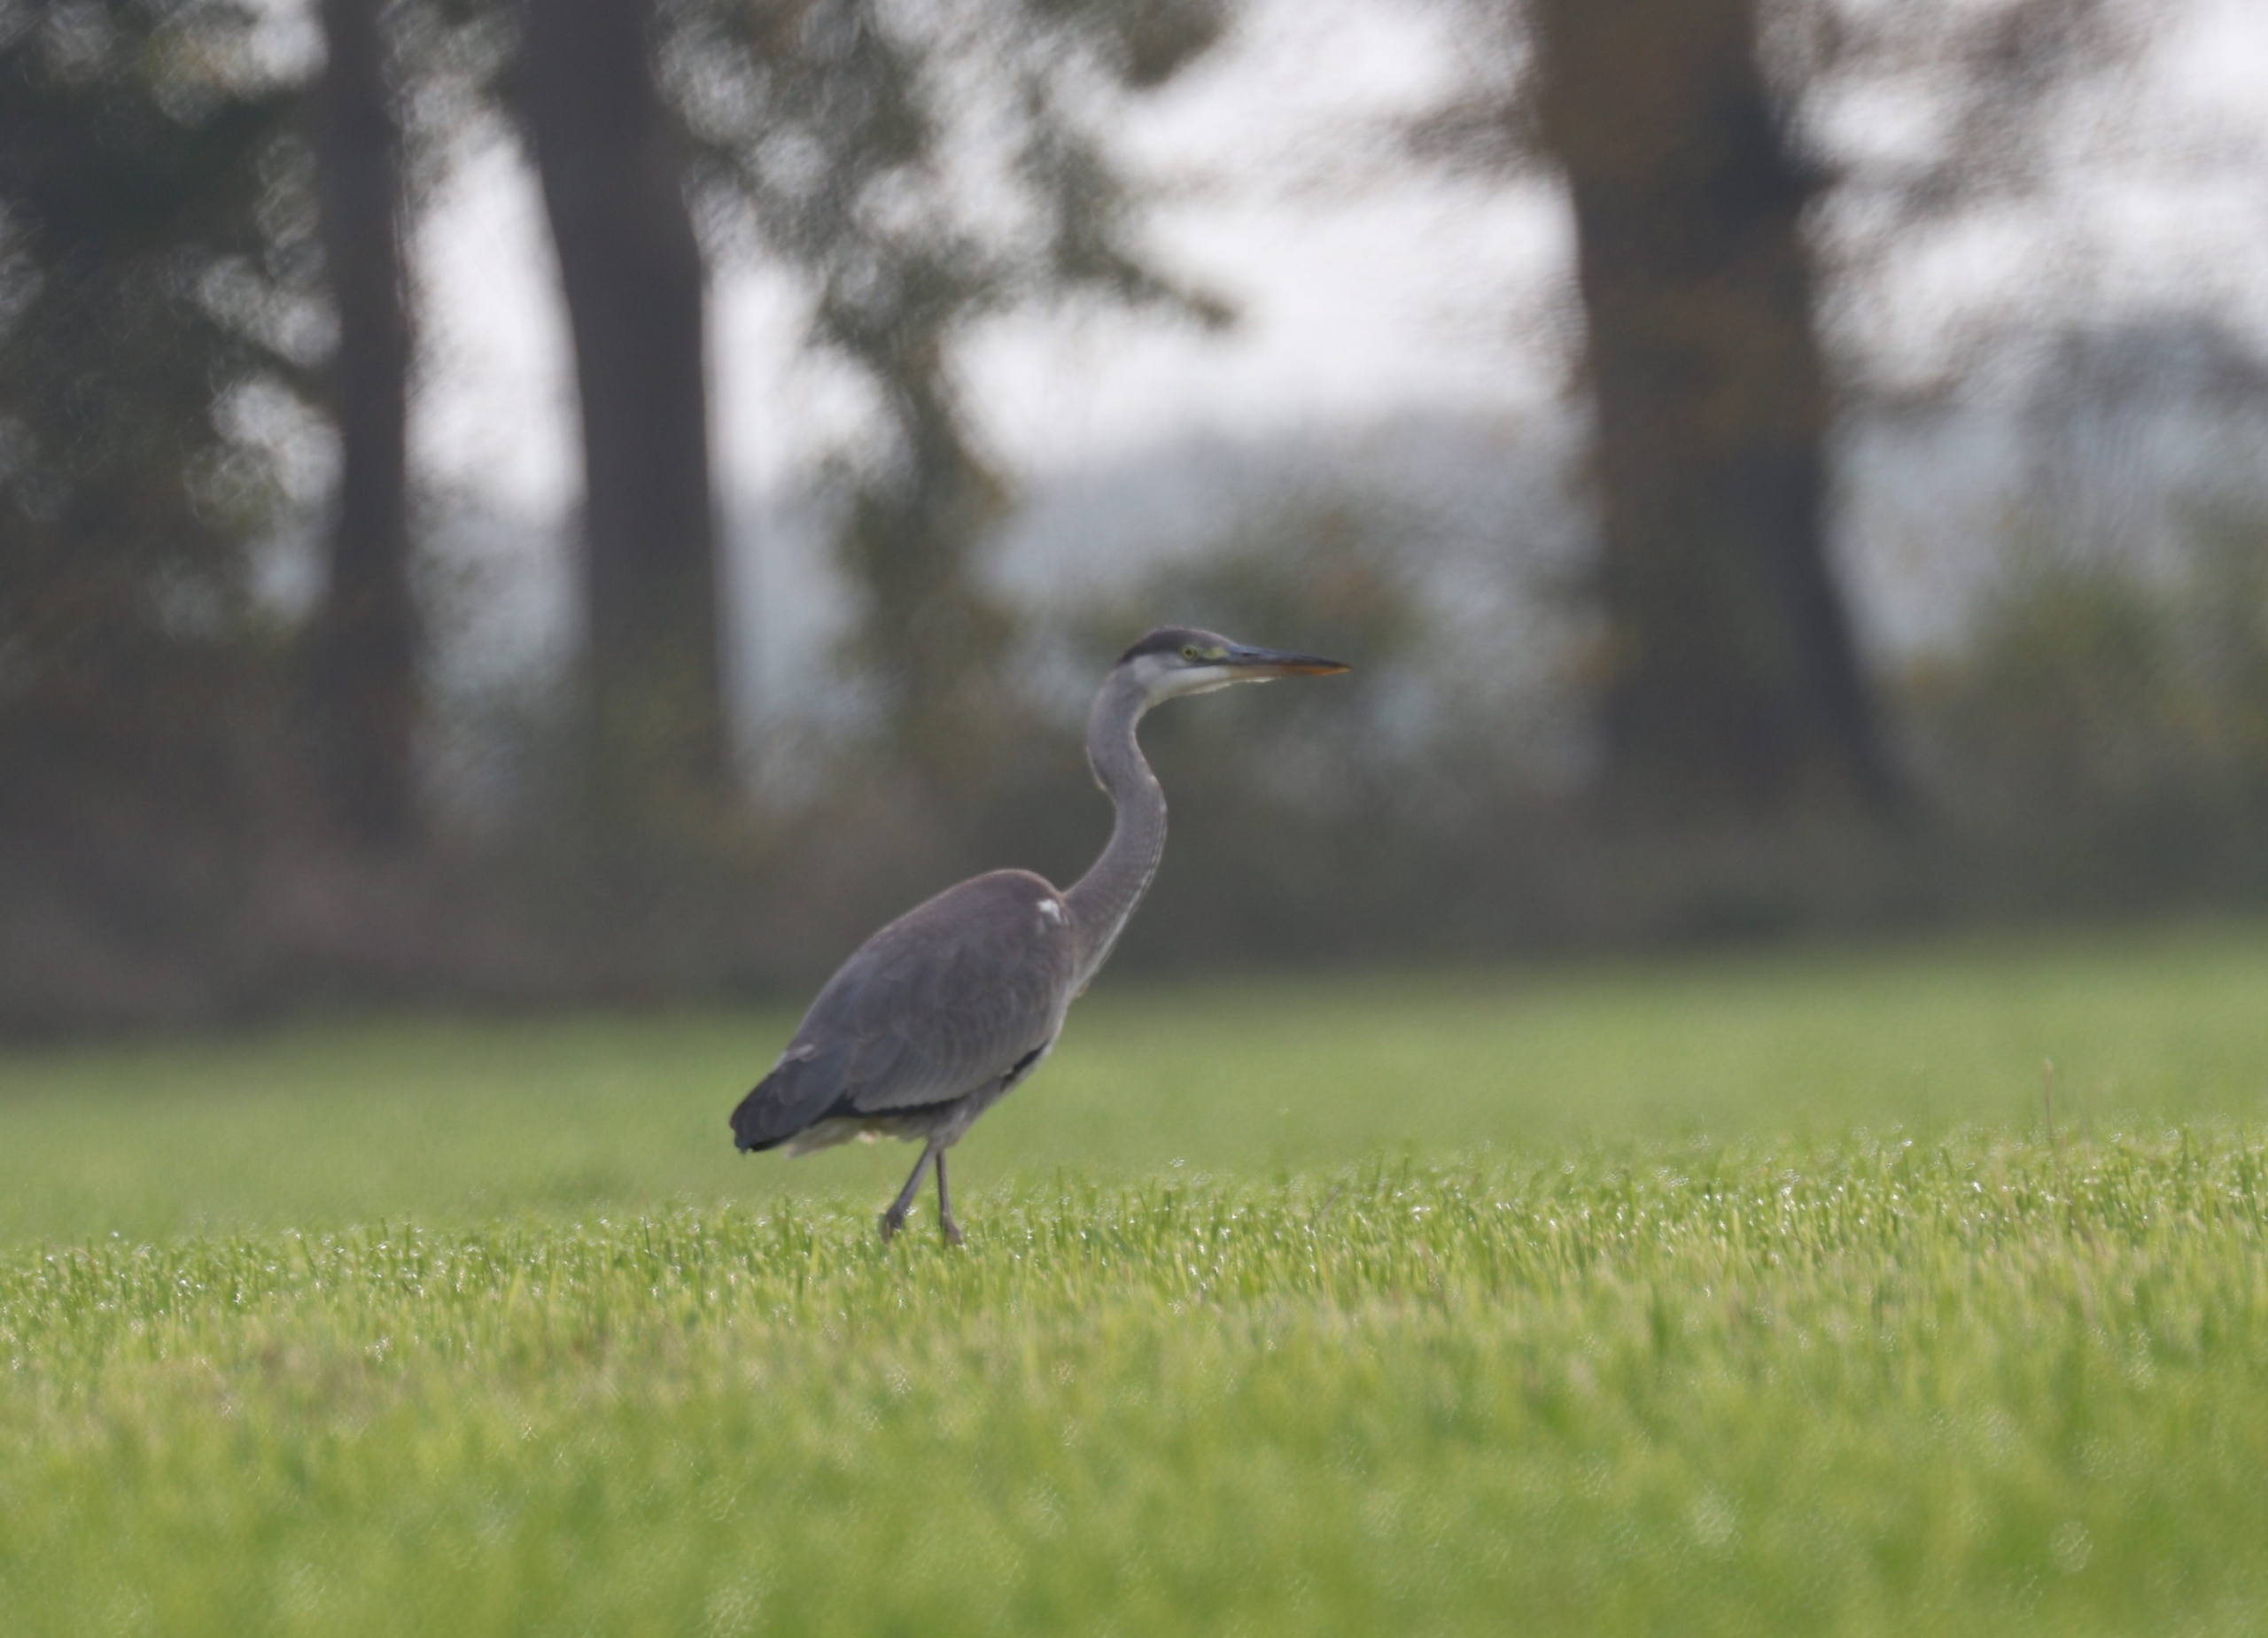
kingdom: Animalia
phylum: Chordata
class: Aves
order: Pelecaniformes
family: Ardeidae
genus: Ardea
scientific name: Ardea cinerea
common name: Fiskehejre
